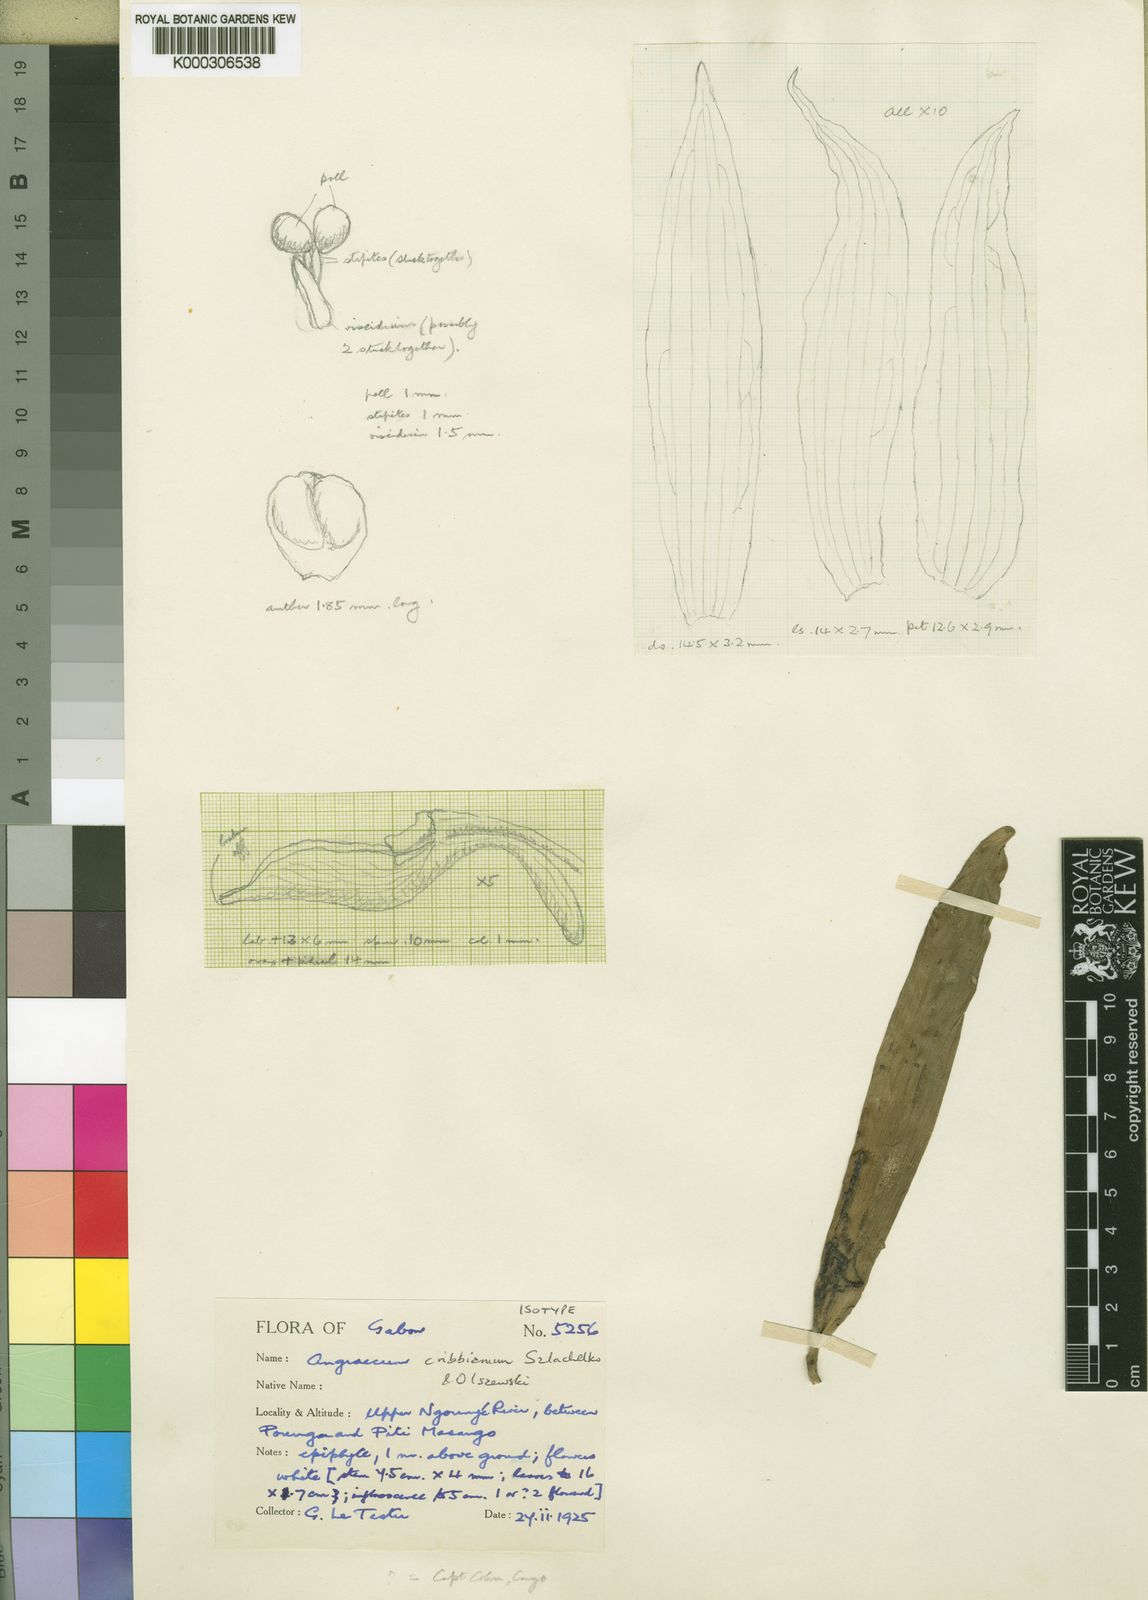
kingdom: Plantae
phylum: Tracheophyta
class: Liliopsida
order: Asparagales
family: Orchidaceae
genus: Angraecum
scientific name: Angraecum cribbianum
